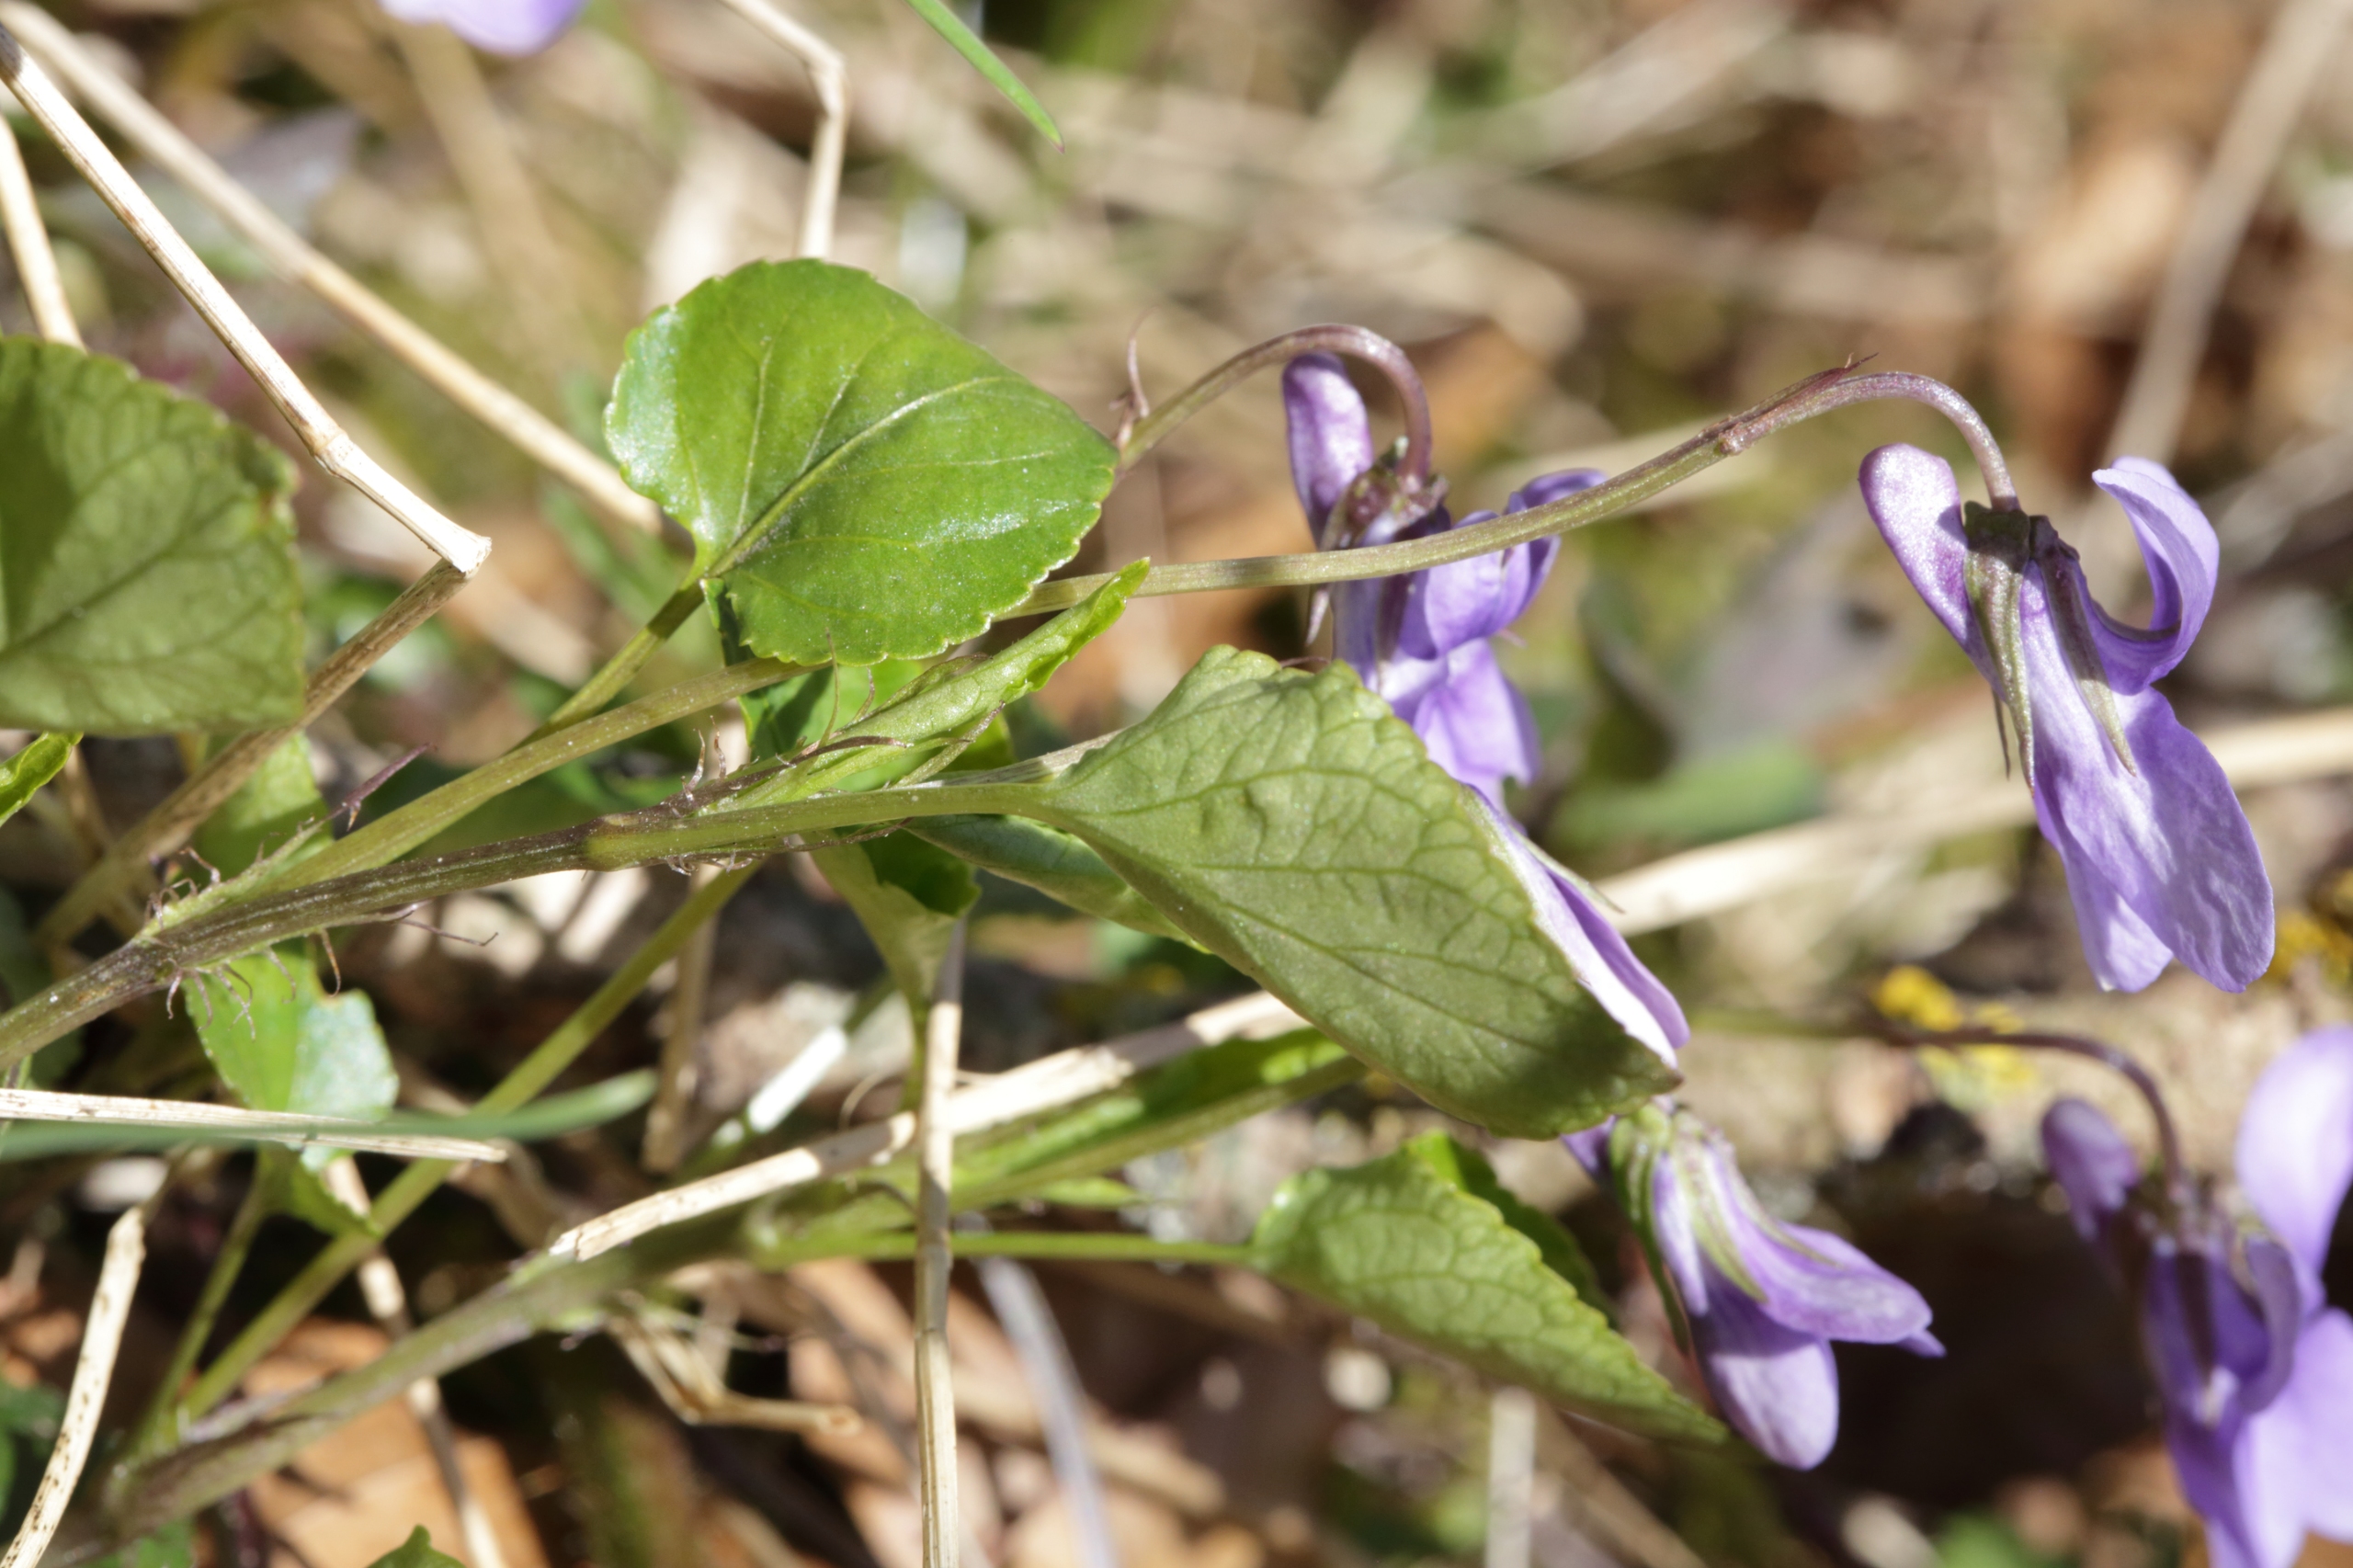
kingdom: Plantae
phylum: Tracheophyta
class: Magnoliopsida
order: Malpighiales
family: Violaceae
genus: Viola
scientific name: Viola reichenbachiana
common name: Skov-viol
